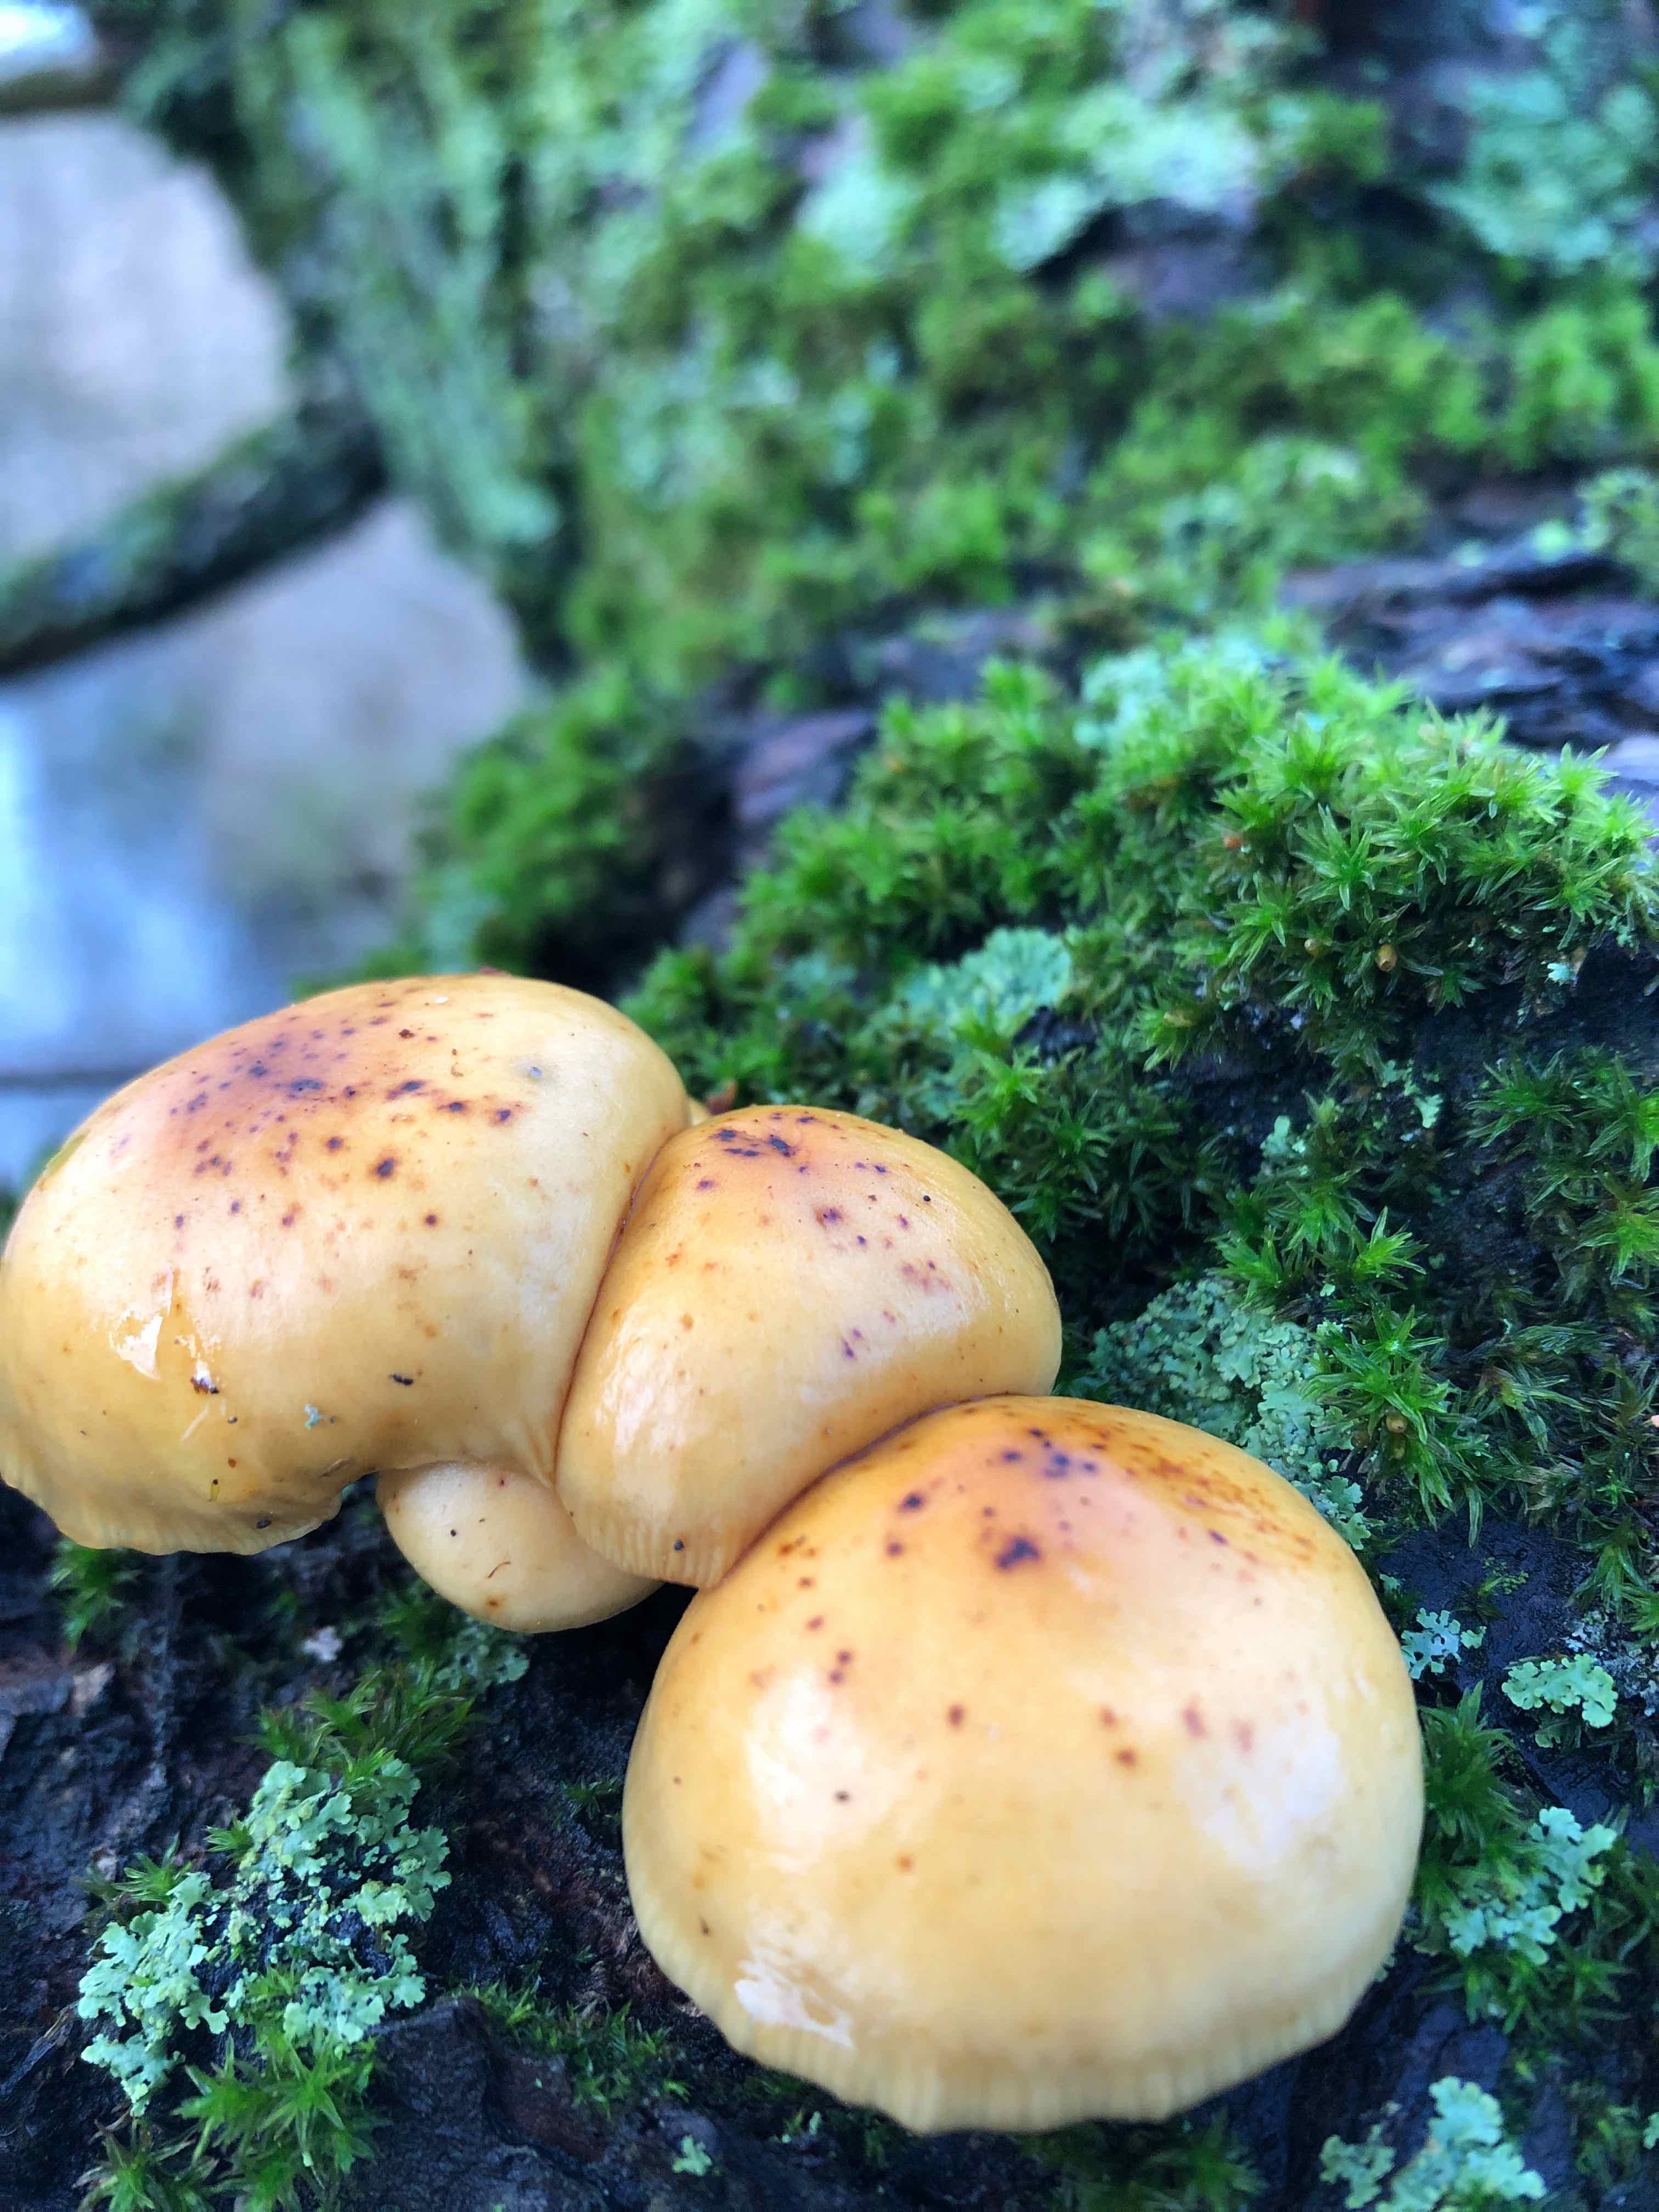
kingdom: Fungi
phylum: Basidiomycota
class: Agaricomycetes
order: Agaricales
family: Physalacriaceae
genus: Flammulina
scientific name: Flammulina
